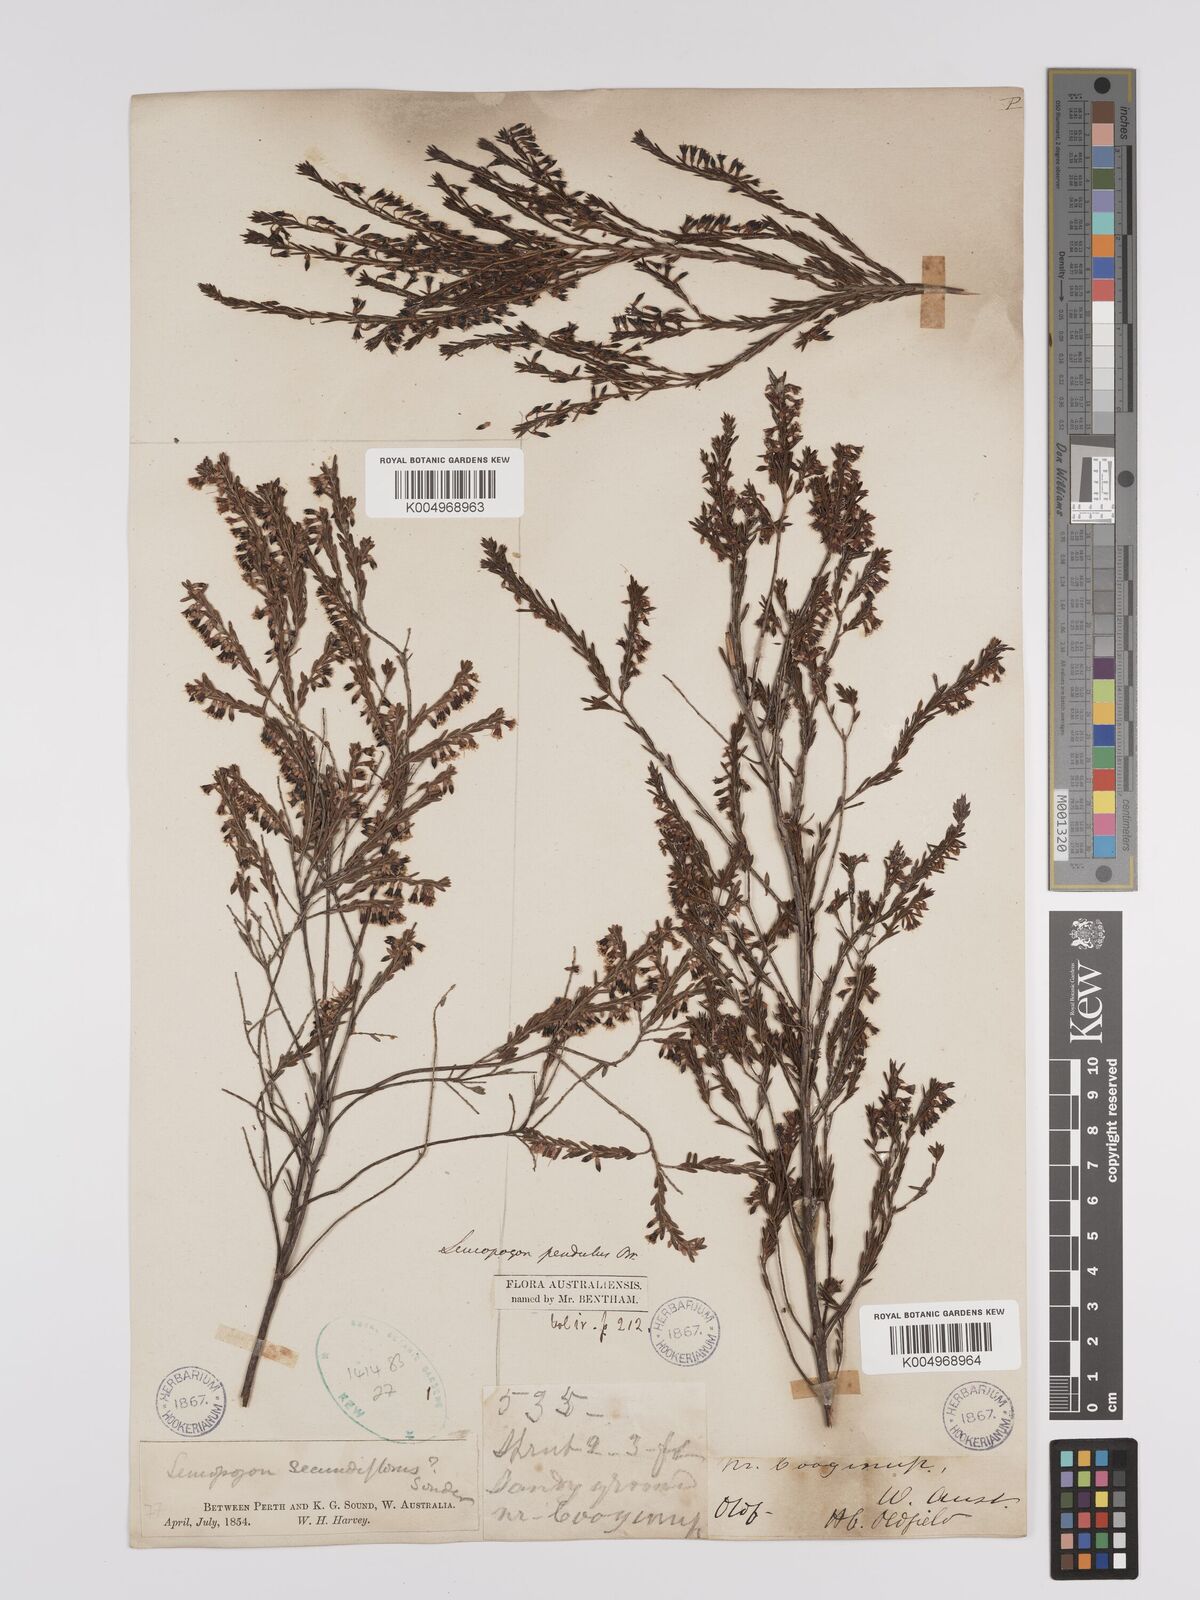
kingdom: Plantae
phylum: Tracheophyta
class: Magnoliopsida
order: Ericales
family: Ericaceae
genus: Styphelia
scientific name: Styphelia pendula
